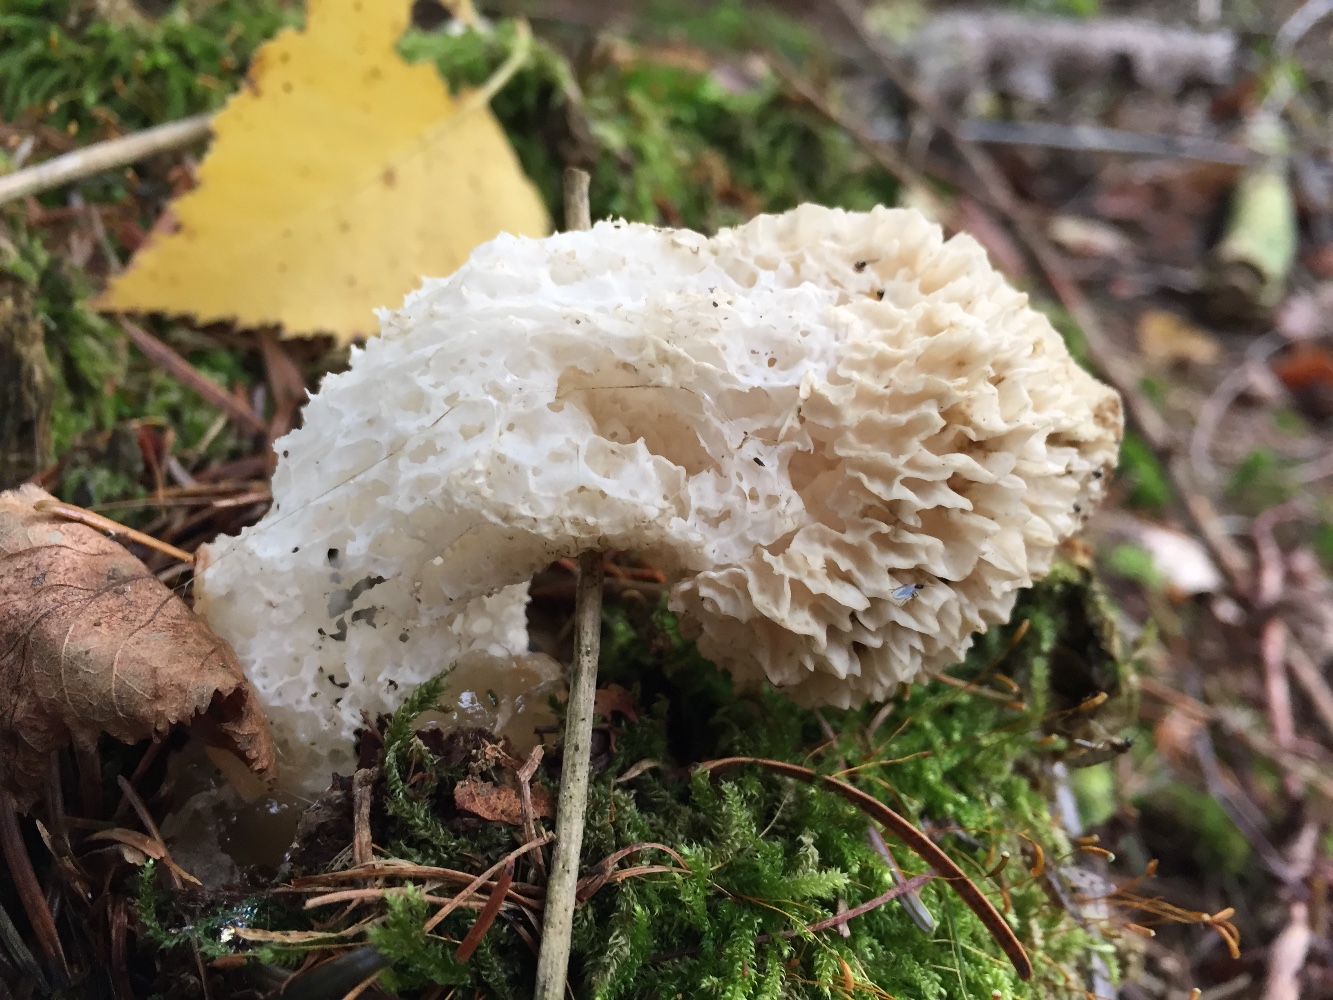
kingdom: Fungi
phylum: Basidiomycota
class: Agaricomycetes
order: Phallales
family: Phallaceae
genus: Phallus
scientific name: Phallus impudicus
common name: almindelig stinksvamp
